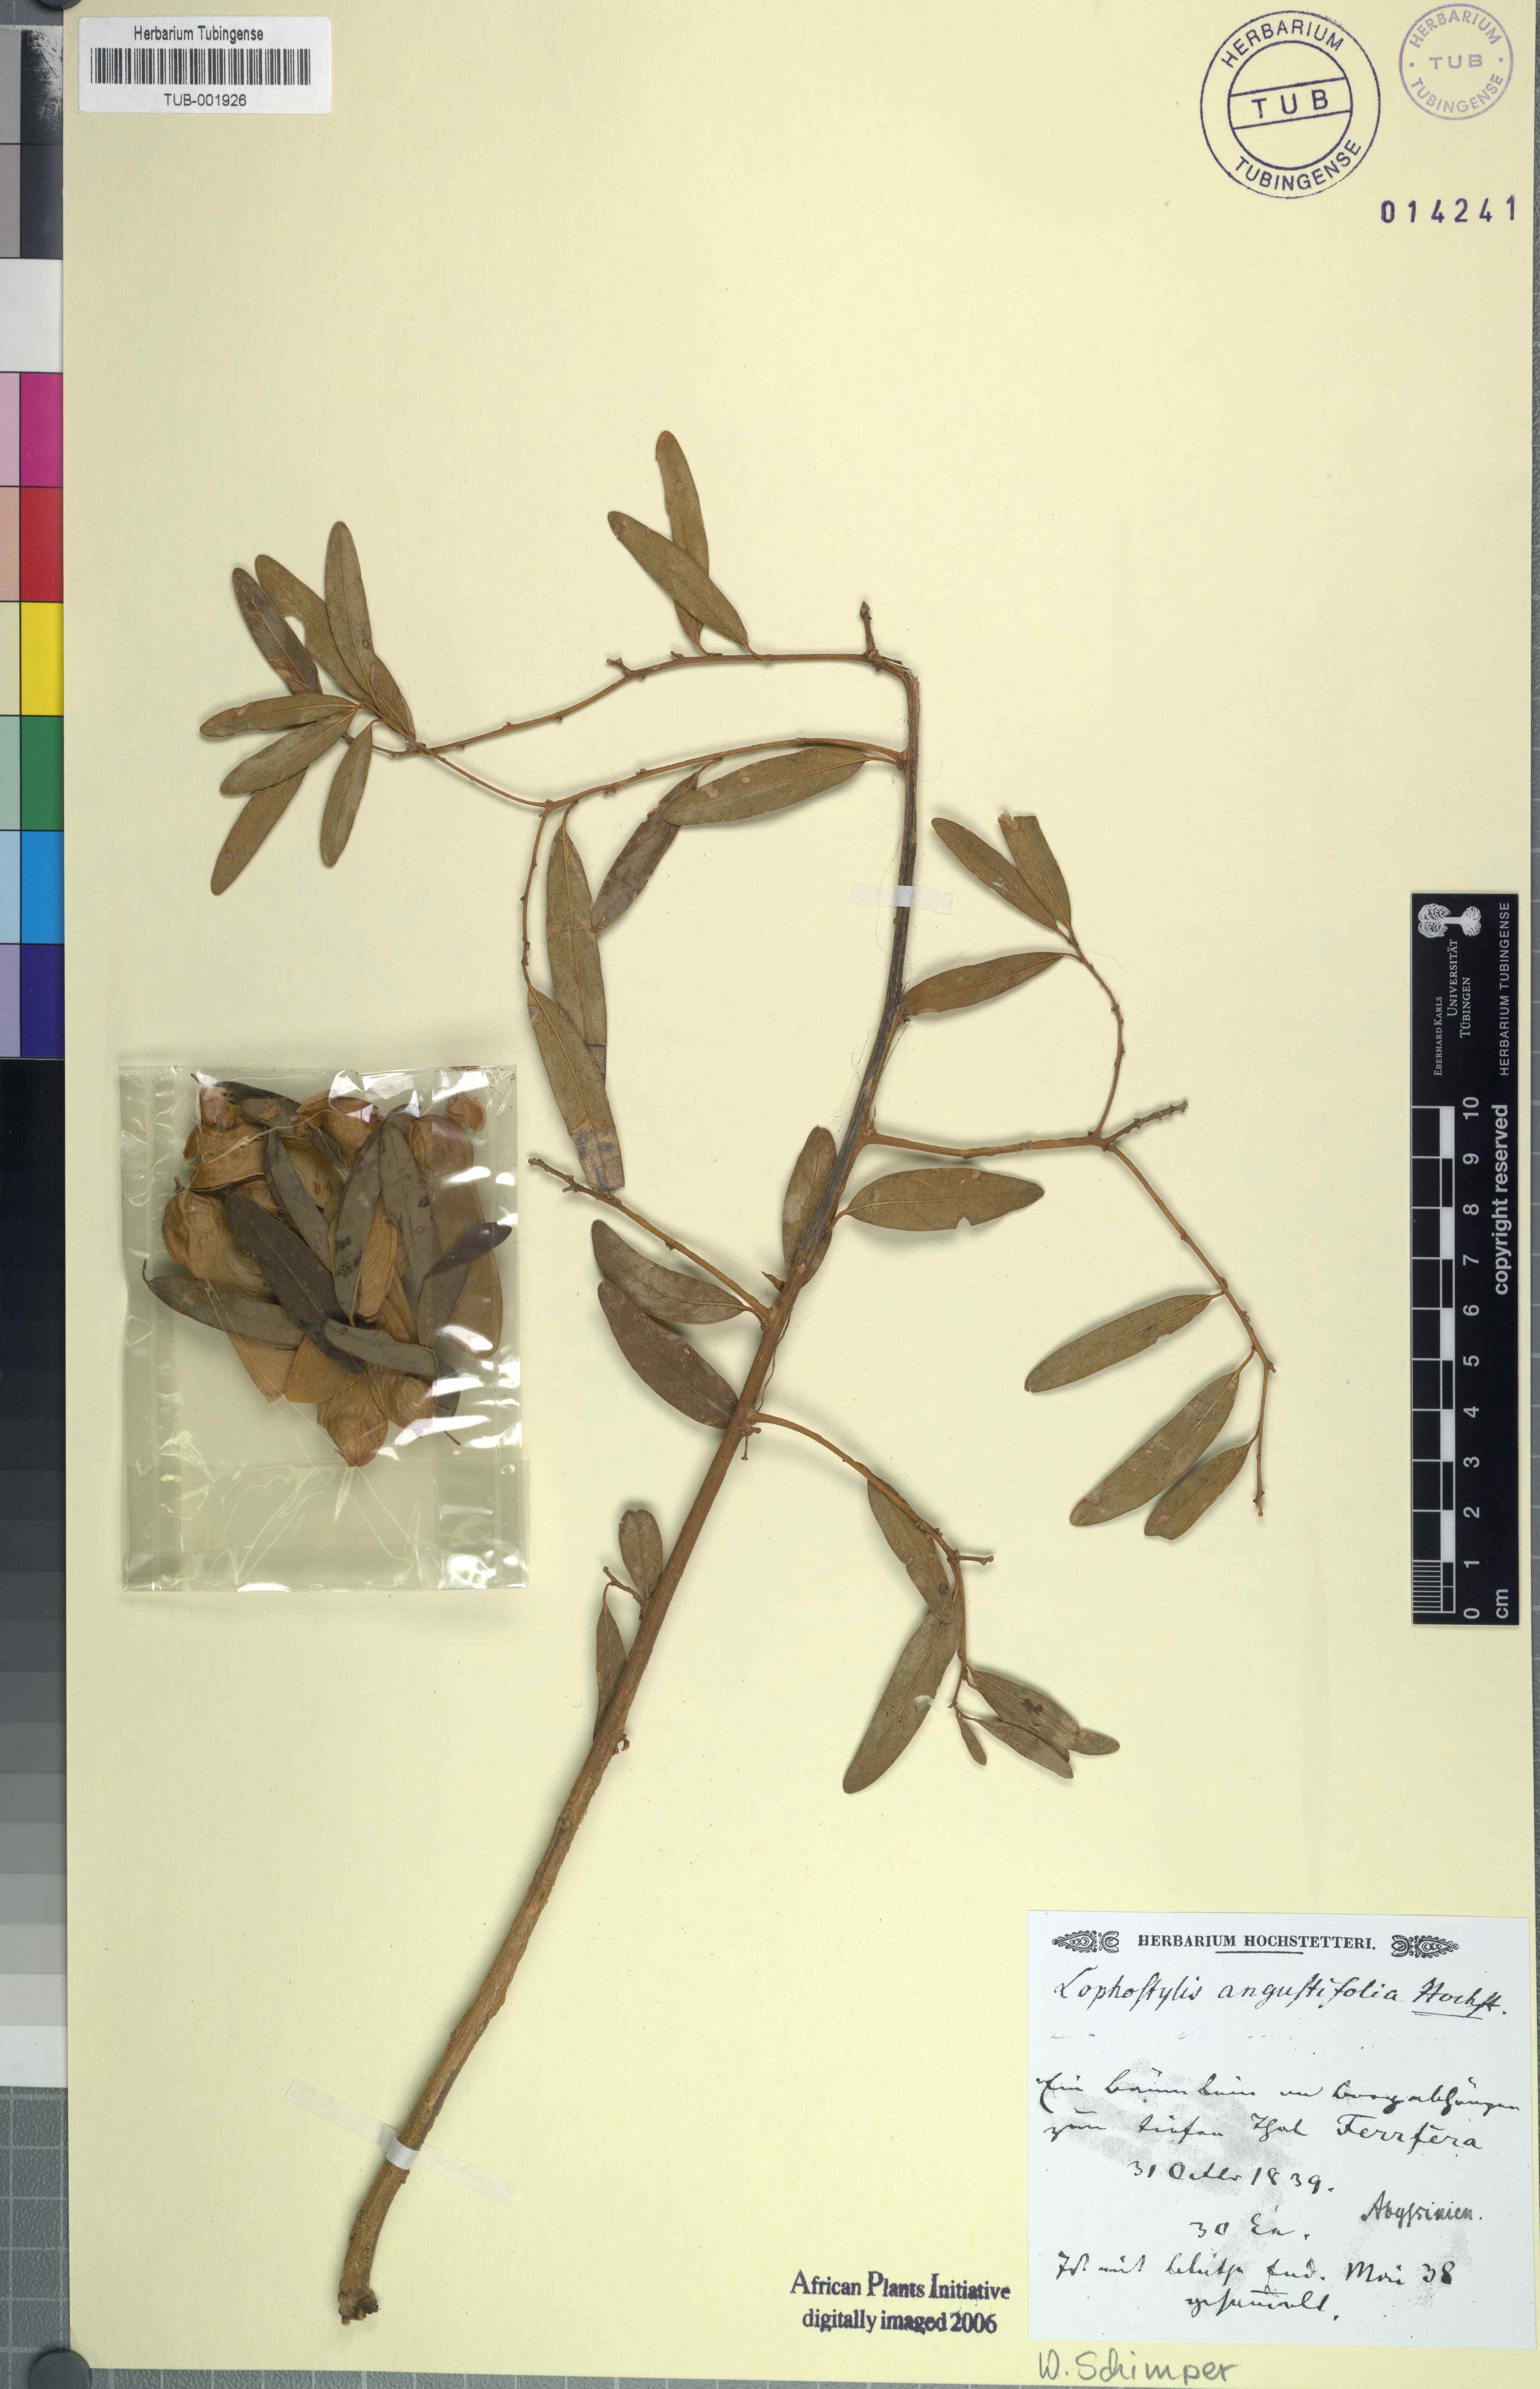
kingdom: Plantae
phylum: Tracheophyta
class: Magnoliopsida
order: Fabales
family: Polygalaceae
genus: Securidaca
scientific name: Securidaca longipedunculata
